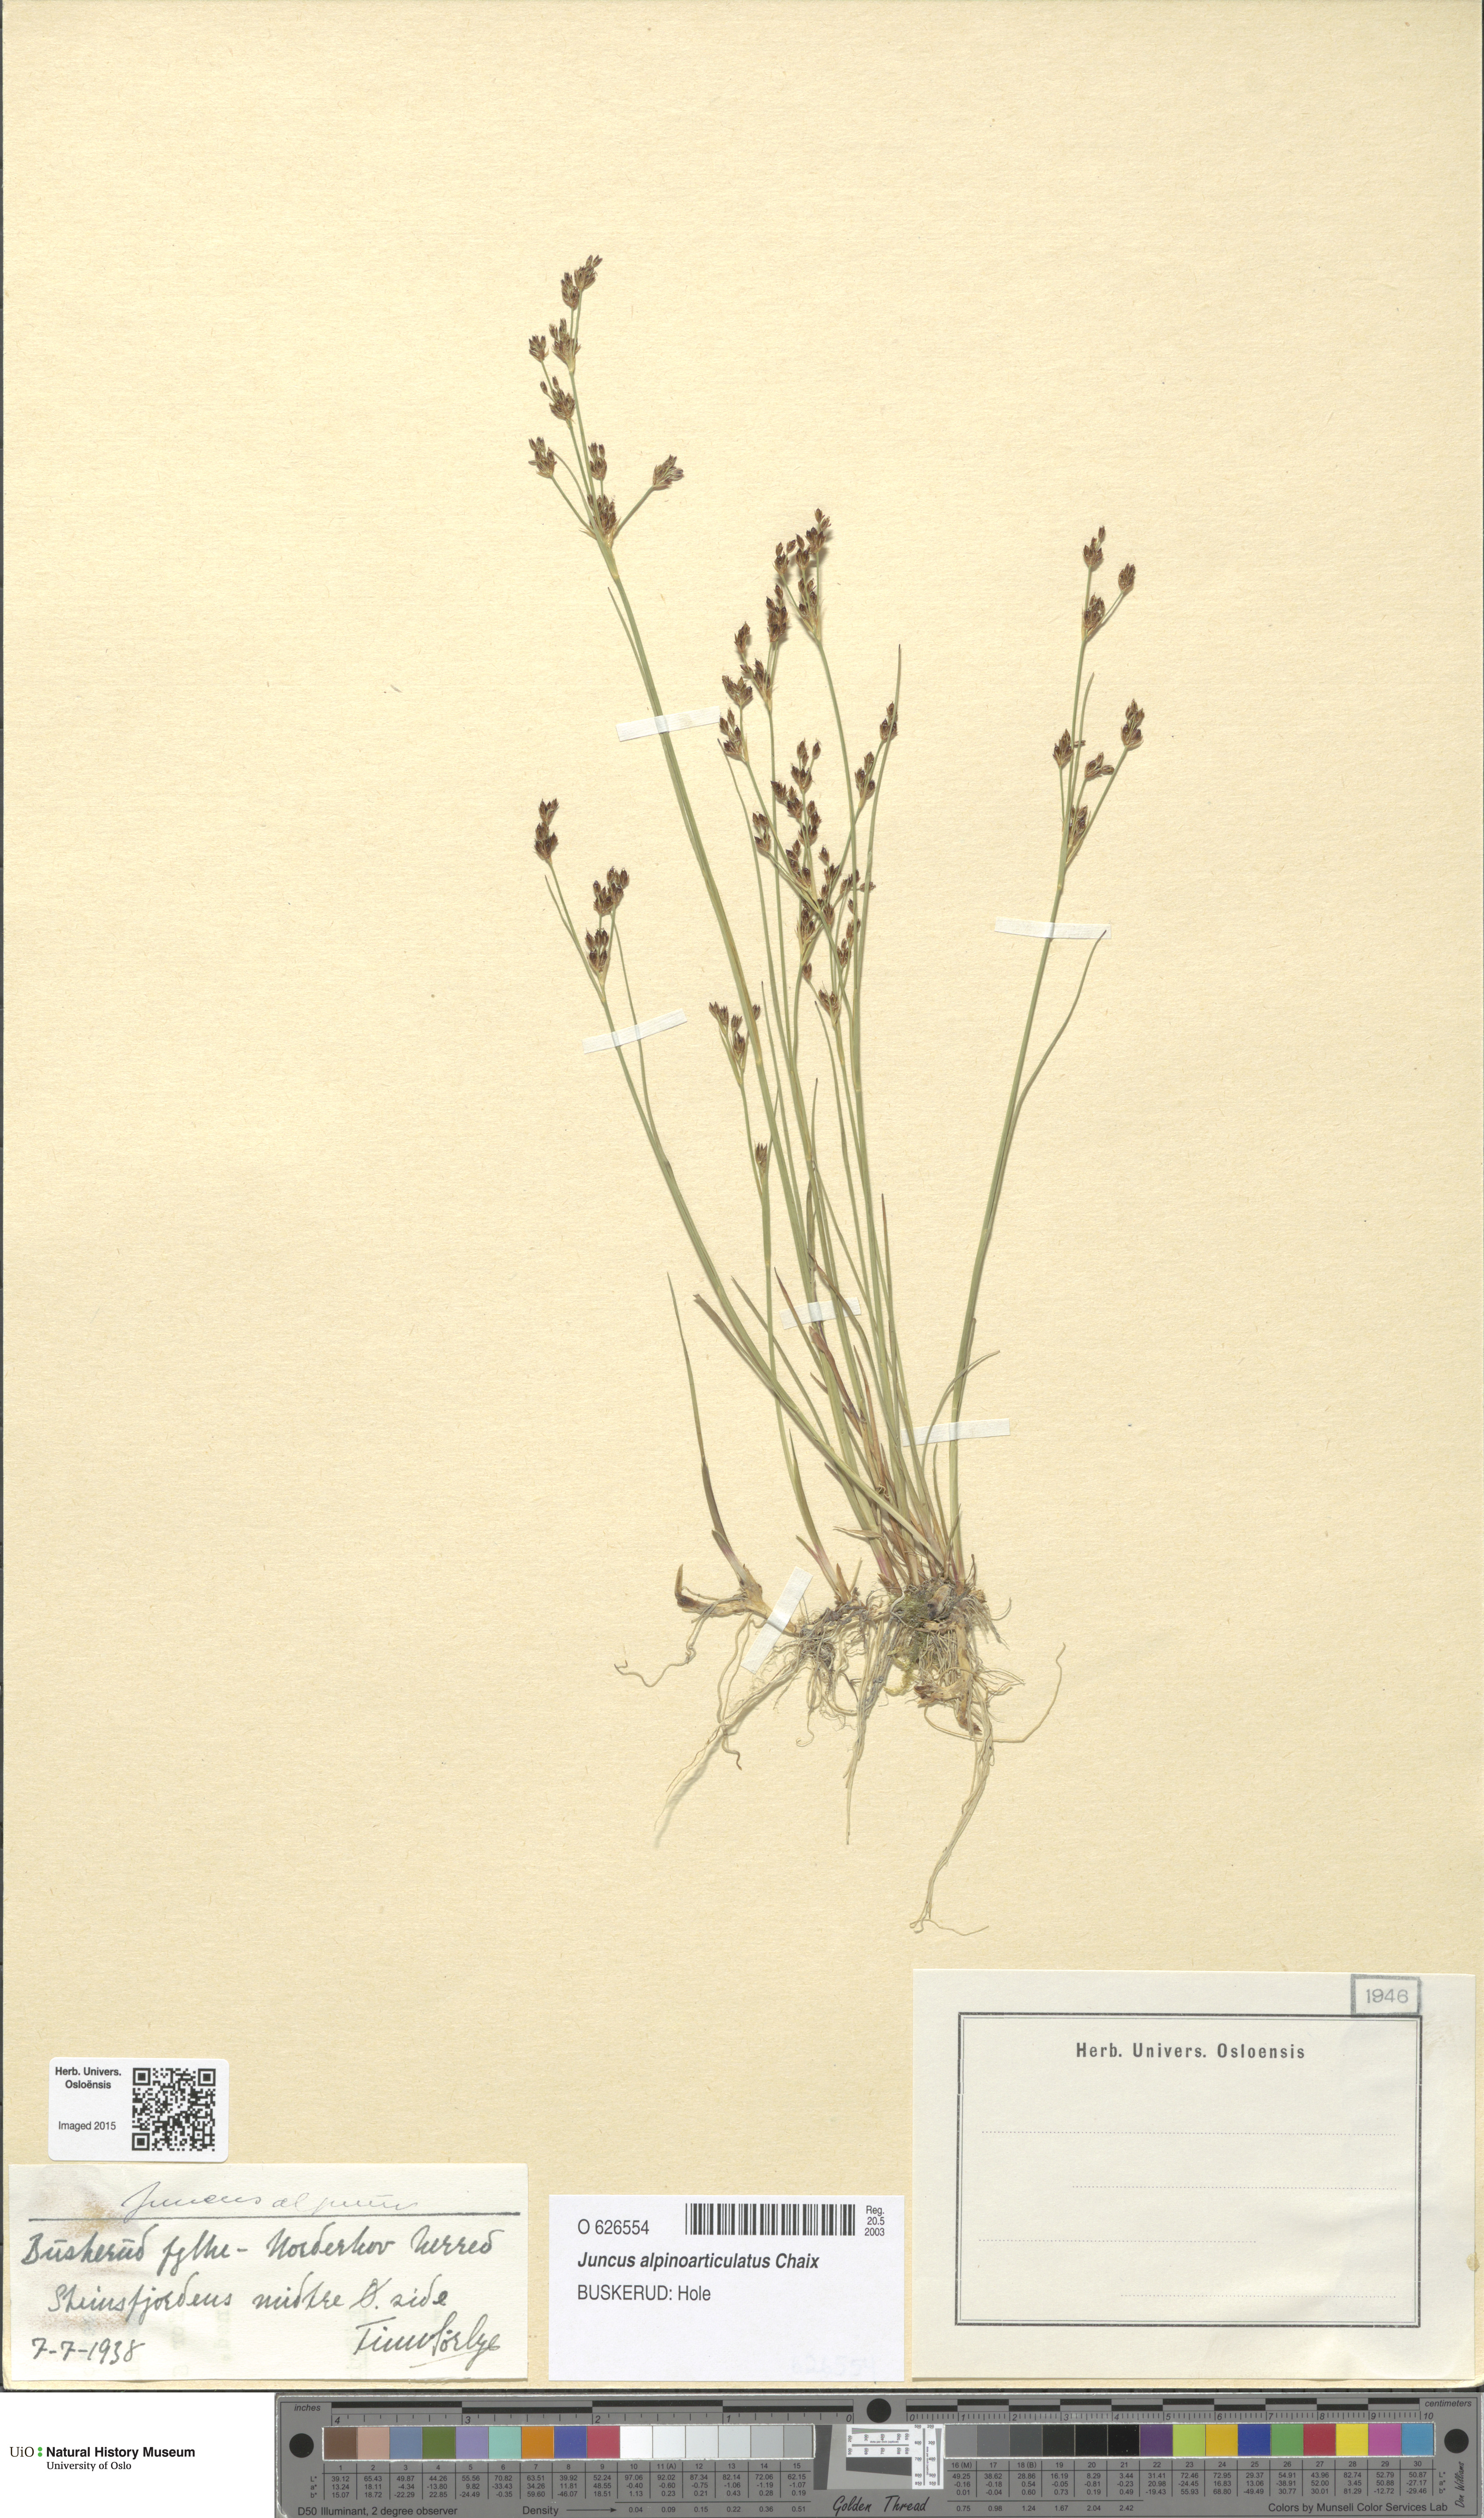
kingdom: Plantae
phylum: Tracheophyta
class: Liliopsida
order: Poales
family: Juncaceae
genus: Juncus
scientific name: Juncus alpinoarticulatus
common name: Alpine rush
